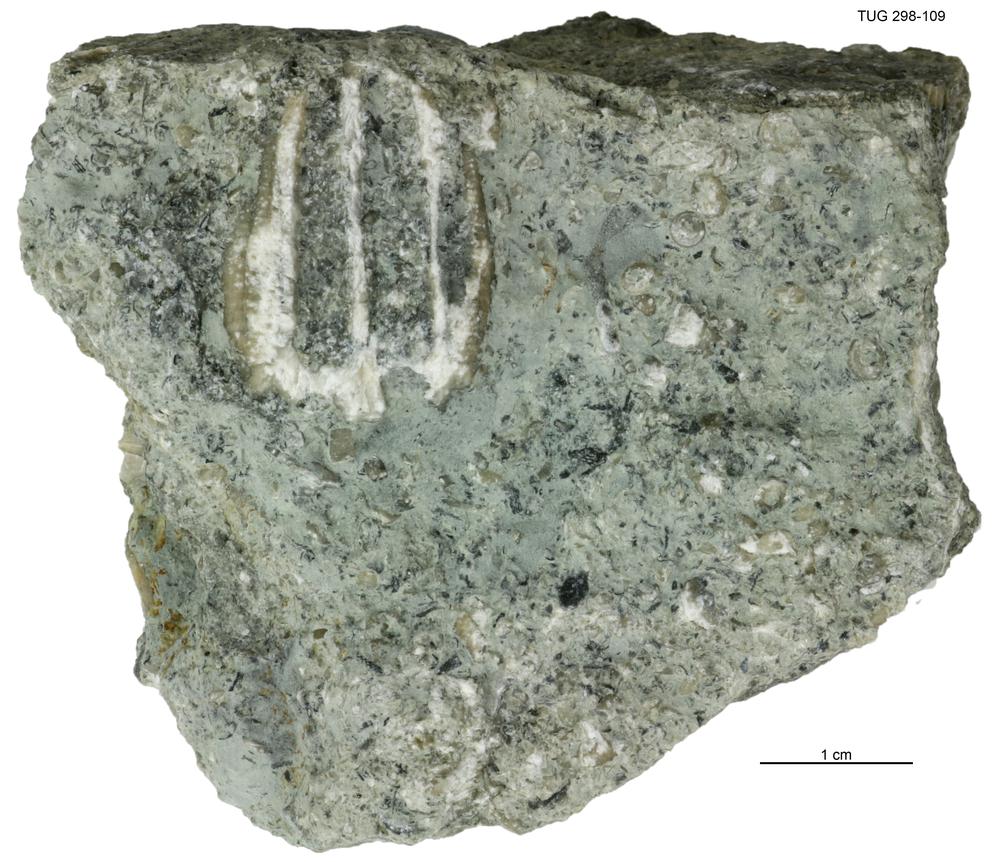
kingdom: Animalia
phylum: Echinodermata
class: Crinoidea
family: Eucalyptocrinitidae
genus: Eucalyptocrinites
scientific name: Eucalyptocrinites
